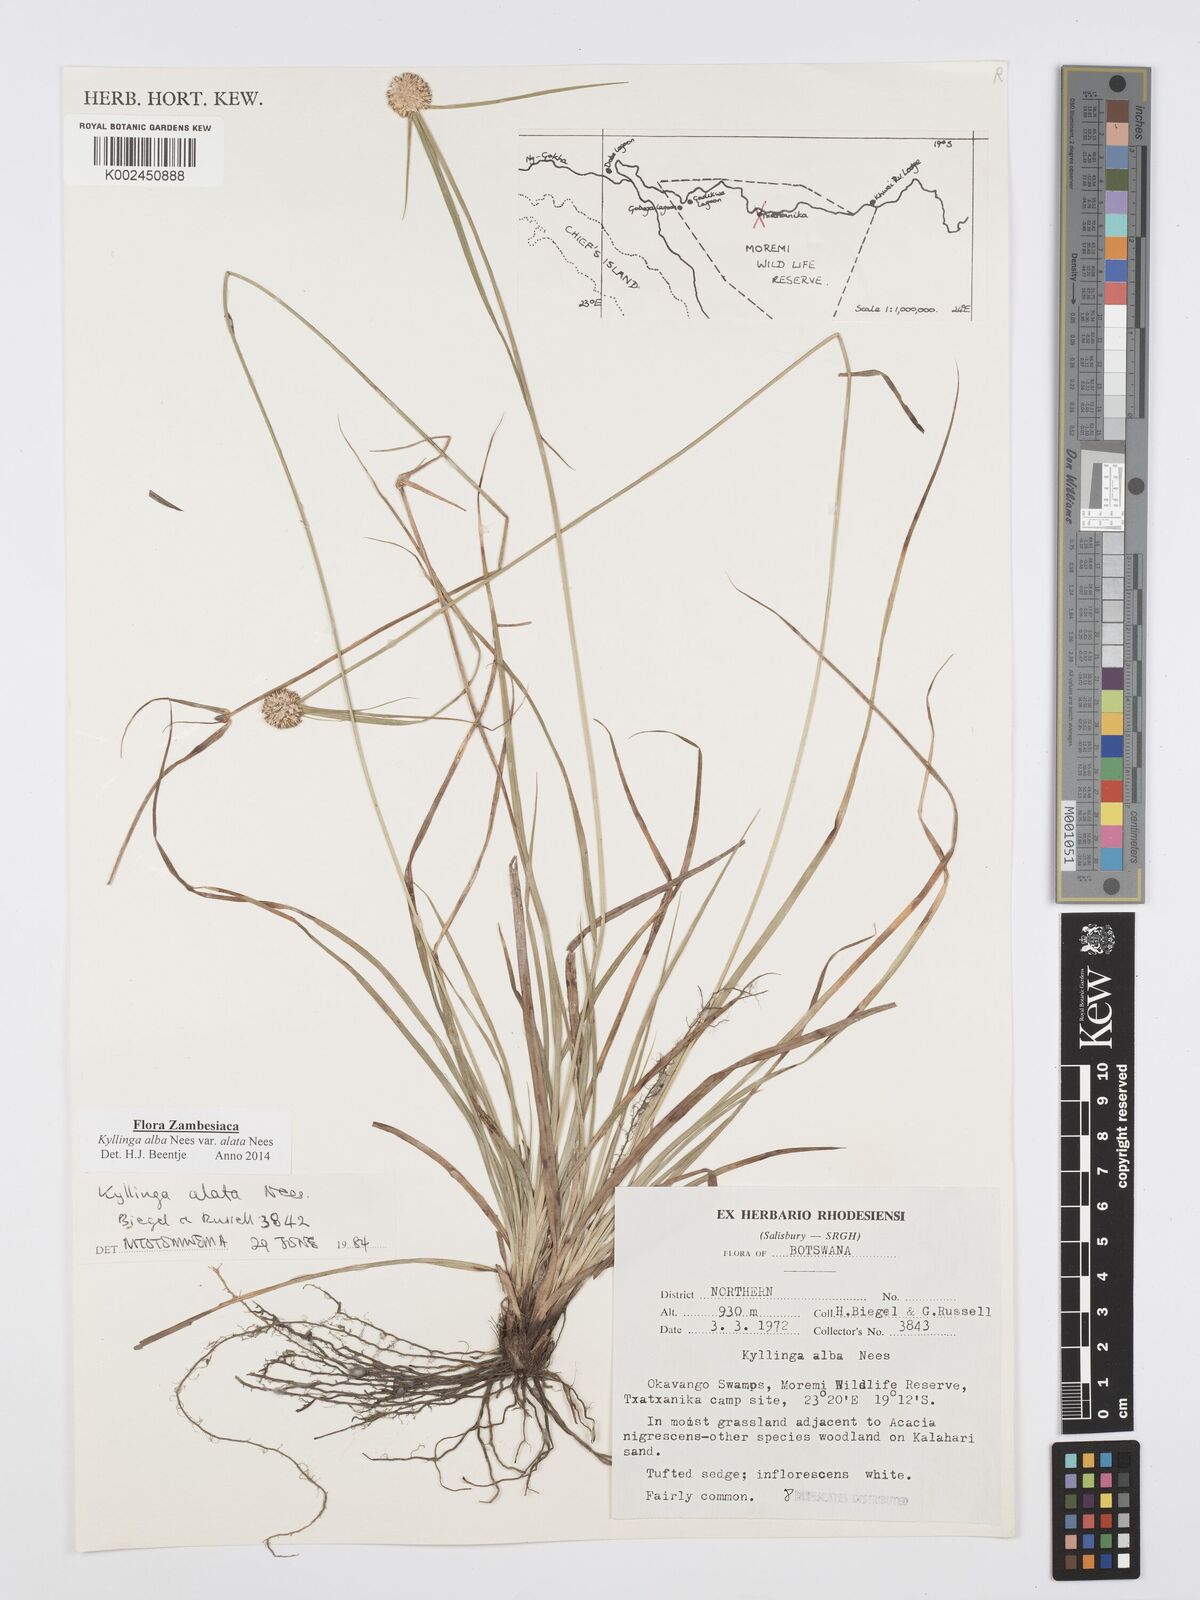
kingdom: Plantae
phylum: Tracheophyta
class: Liliopsida
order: Poales
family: Cyperaceae
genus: Cyperus
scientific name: Cyperus alatus
